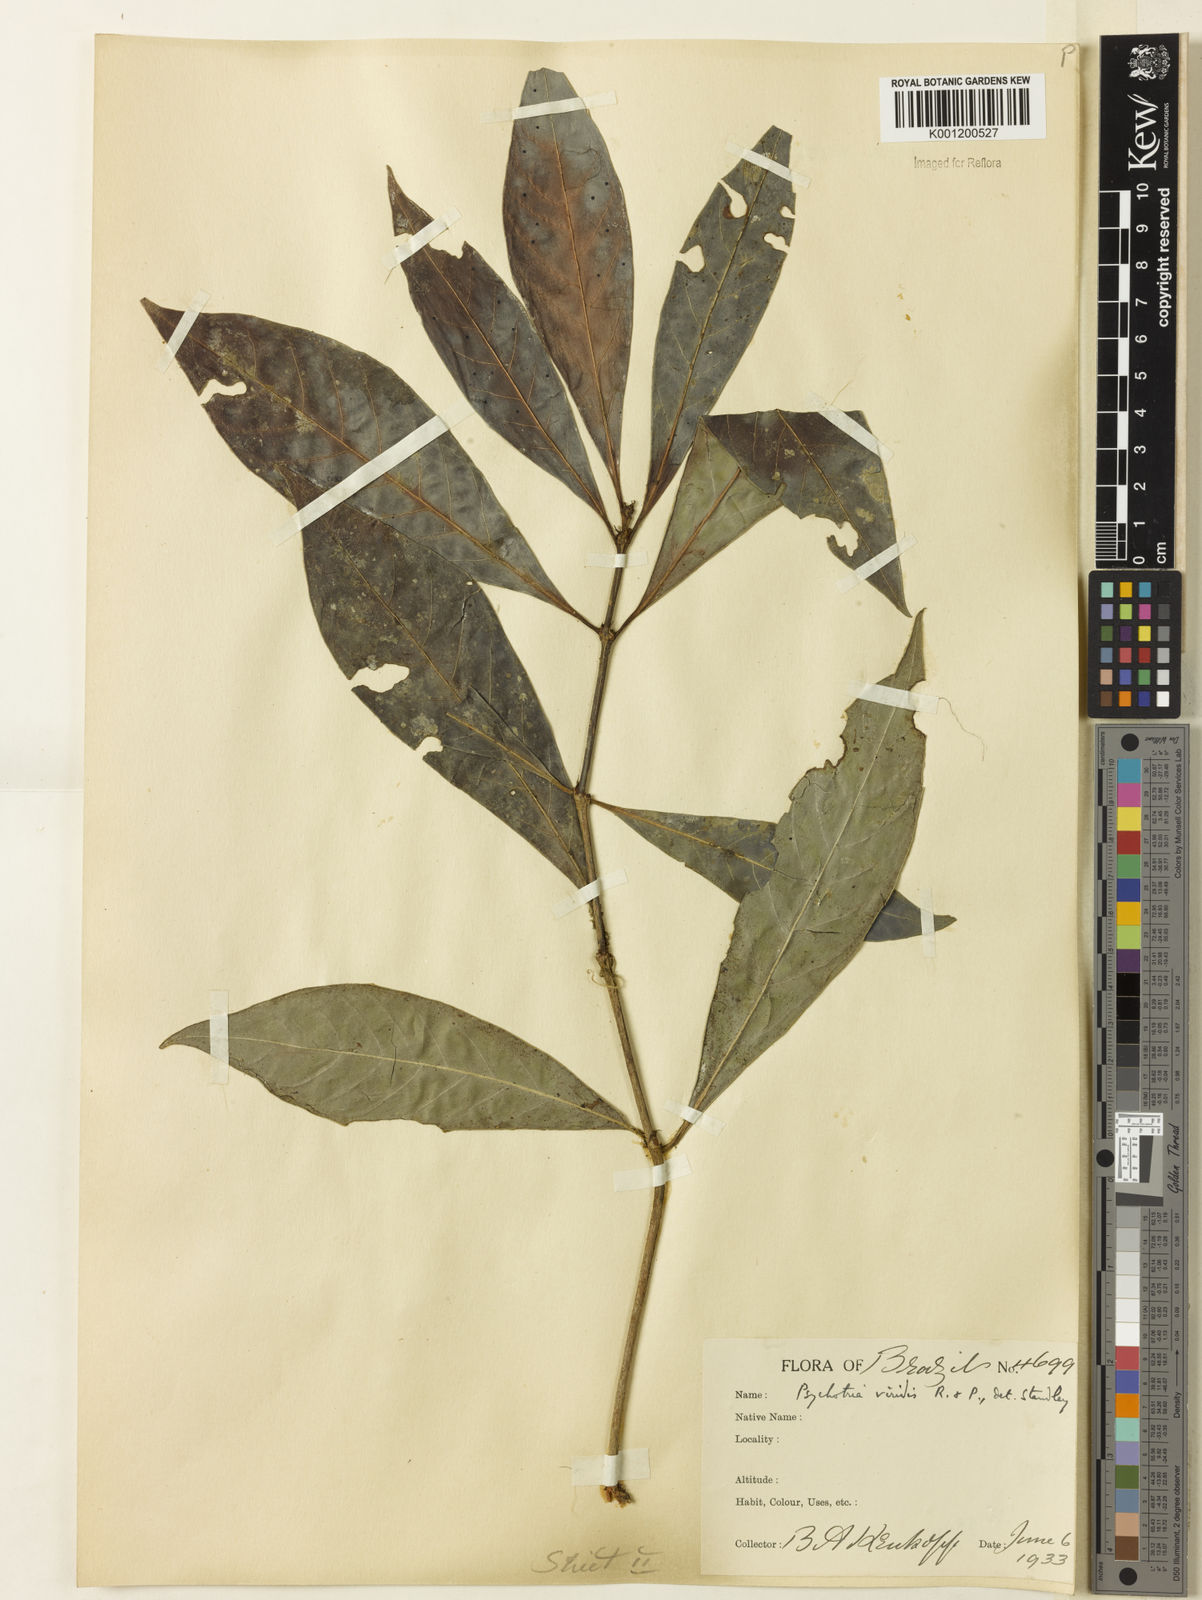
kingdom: Plantae
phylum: Tracheophyta
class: Magnoliopsida
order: Gentianales
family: Rubiaceae
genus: Psychotria
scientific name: Psychotria viridis
